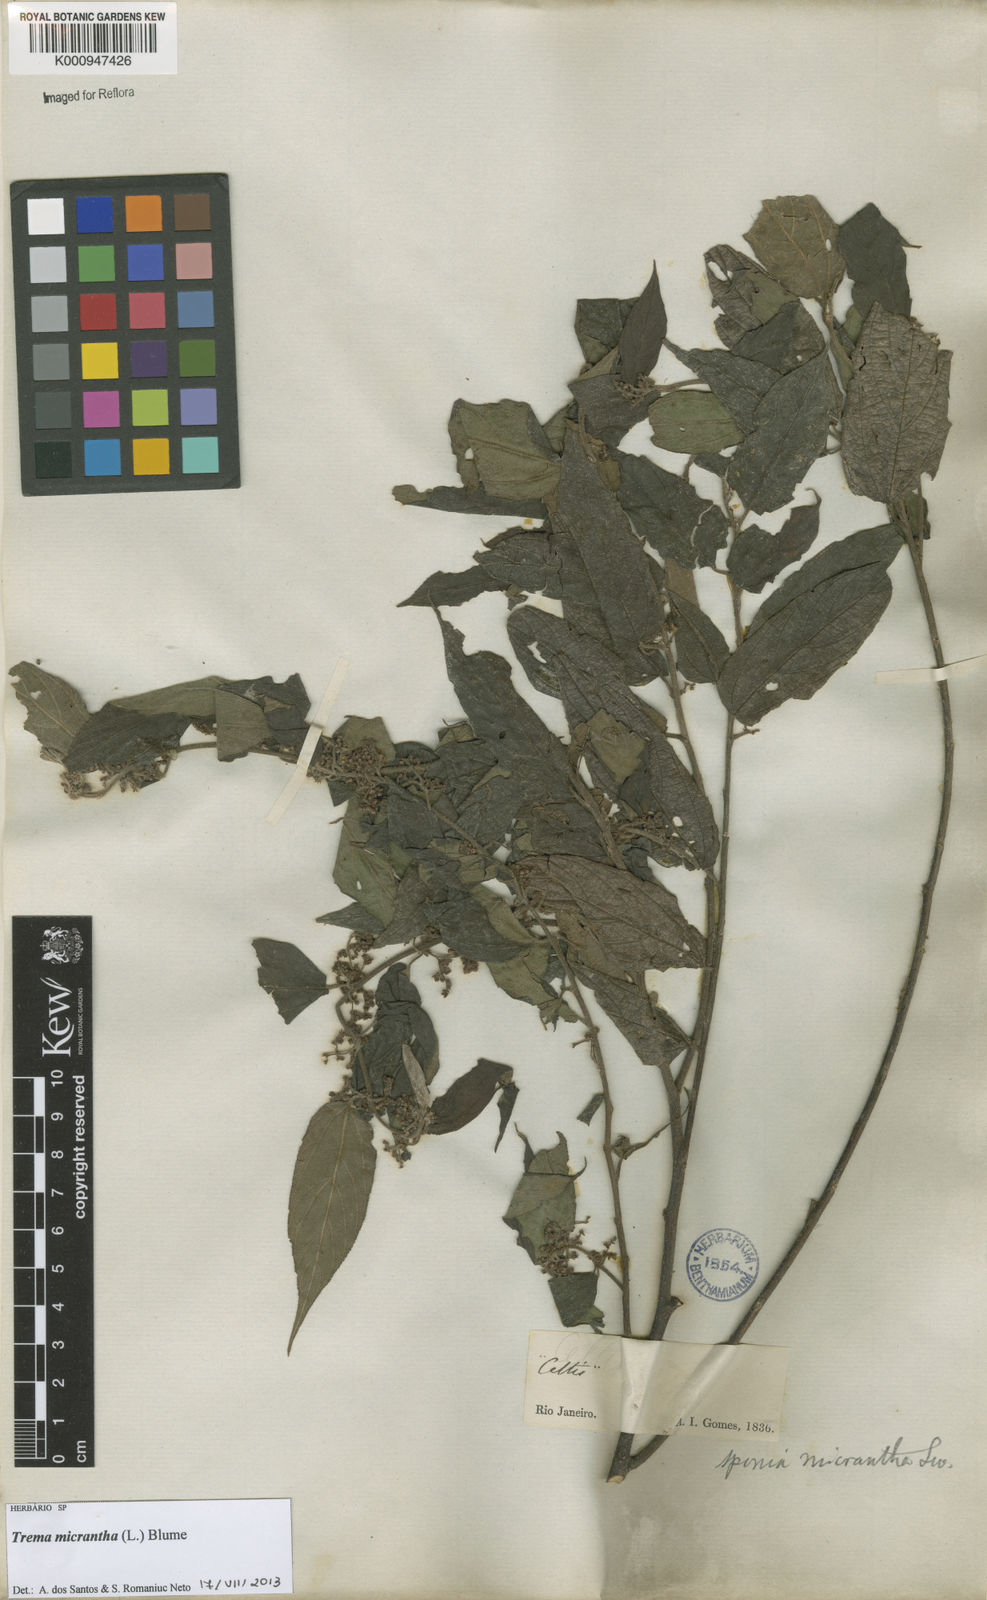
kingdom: Plantae
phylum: Tracheophyta
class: Magnoliopsida
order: Rosales
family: Cannabaceae
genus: Trema
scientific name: Trema micranthum
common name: Jamaican nettletree
